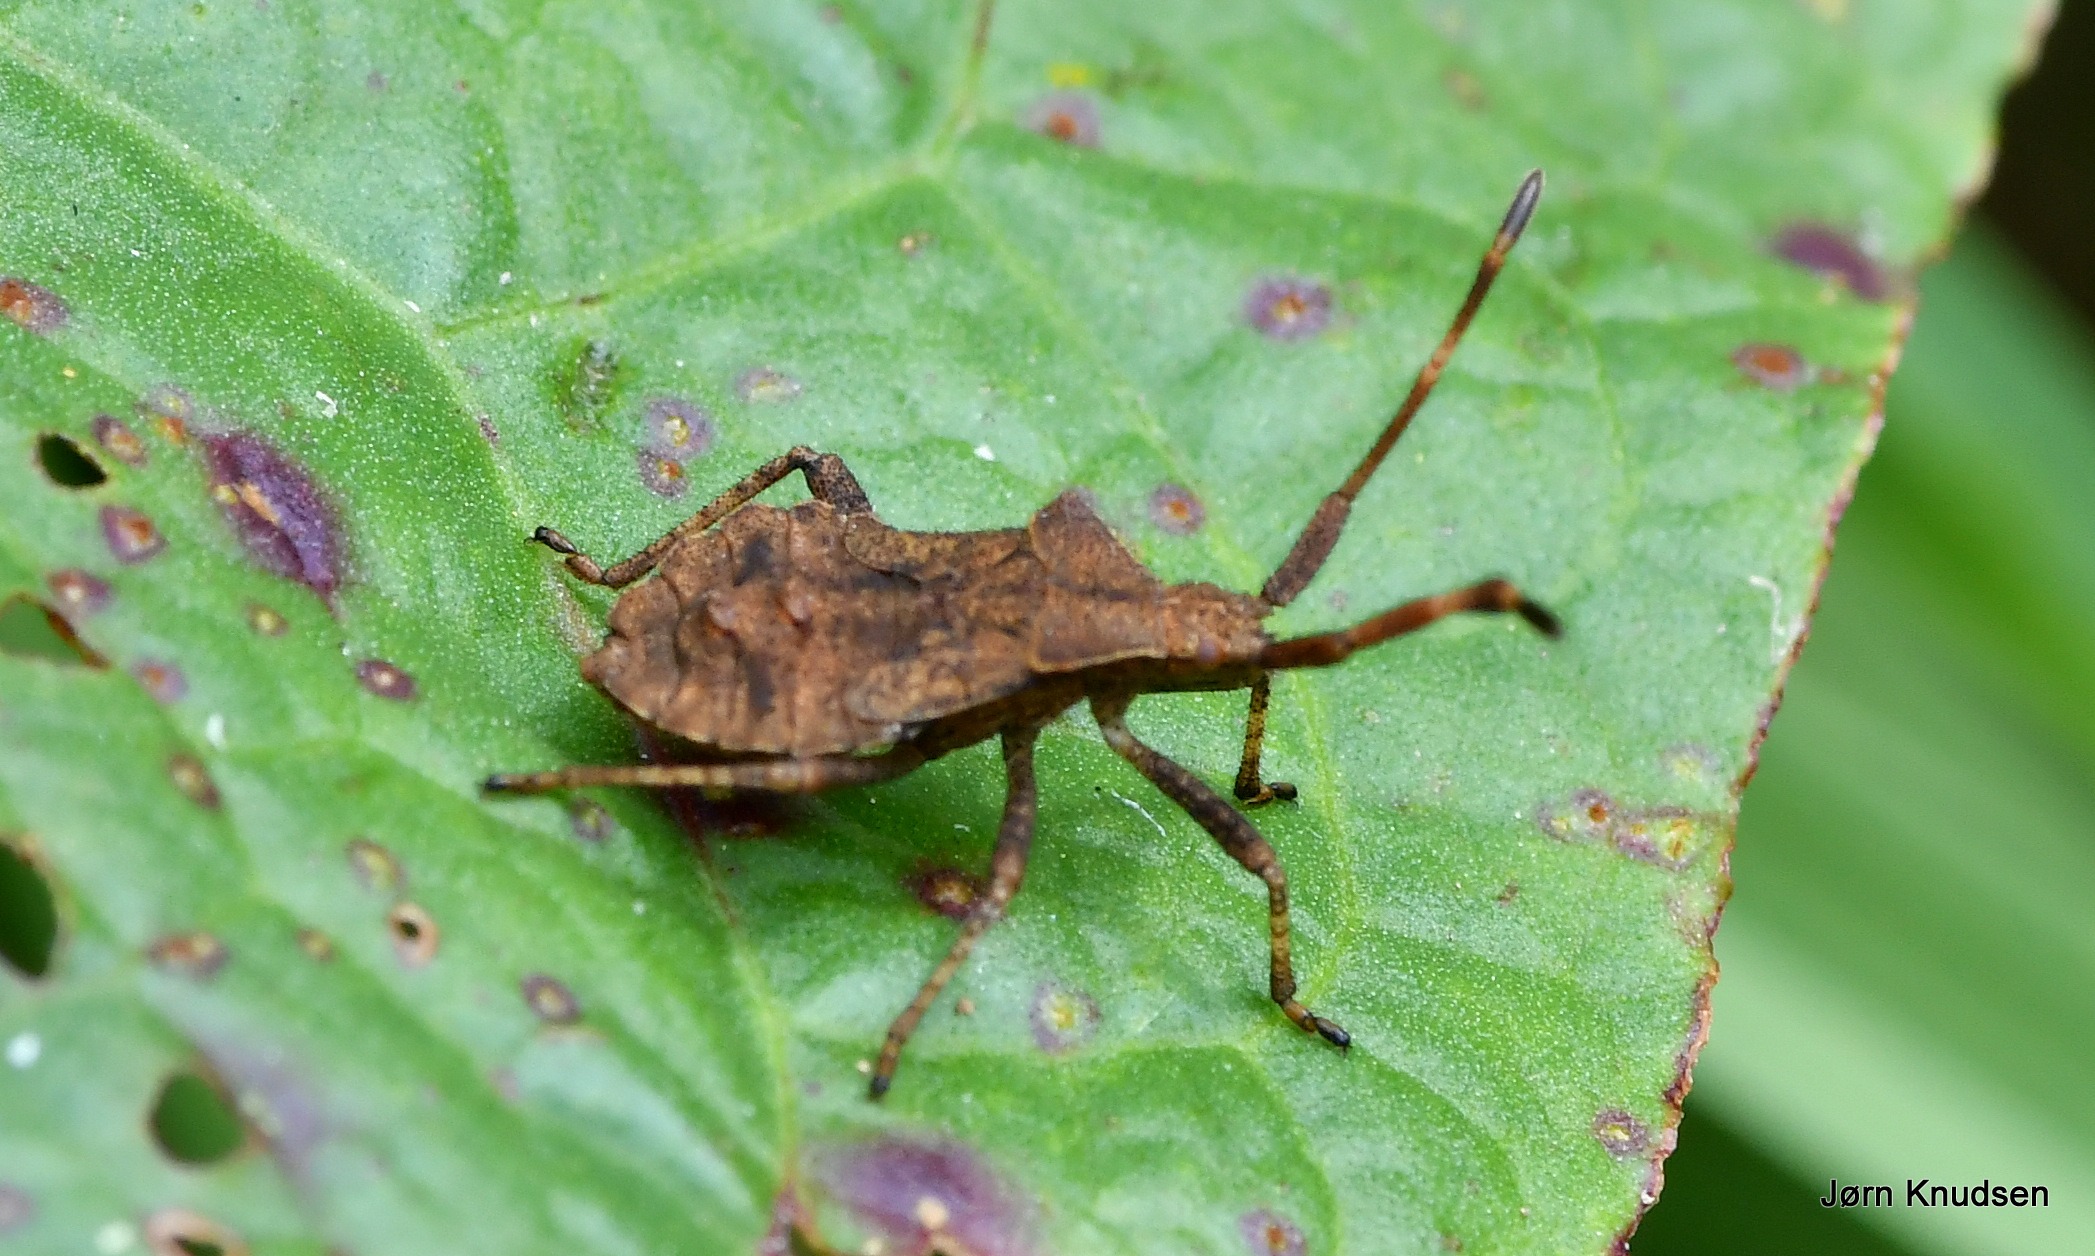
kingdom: Animalia
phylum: Arthropoda
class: Insecta
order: Hemiptera
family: Coreidae
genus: Coreus
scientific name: Coreus marginatus
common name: Skræppetæge
